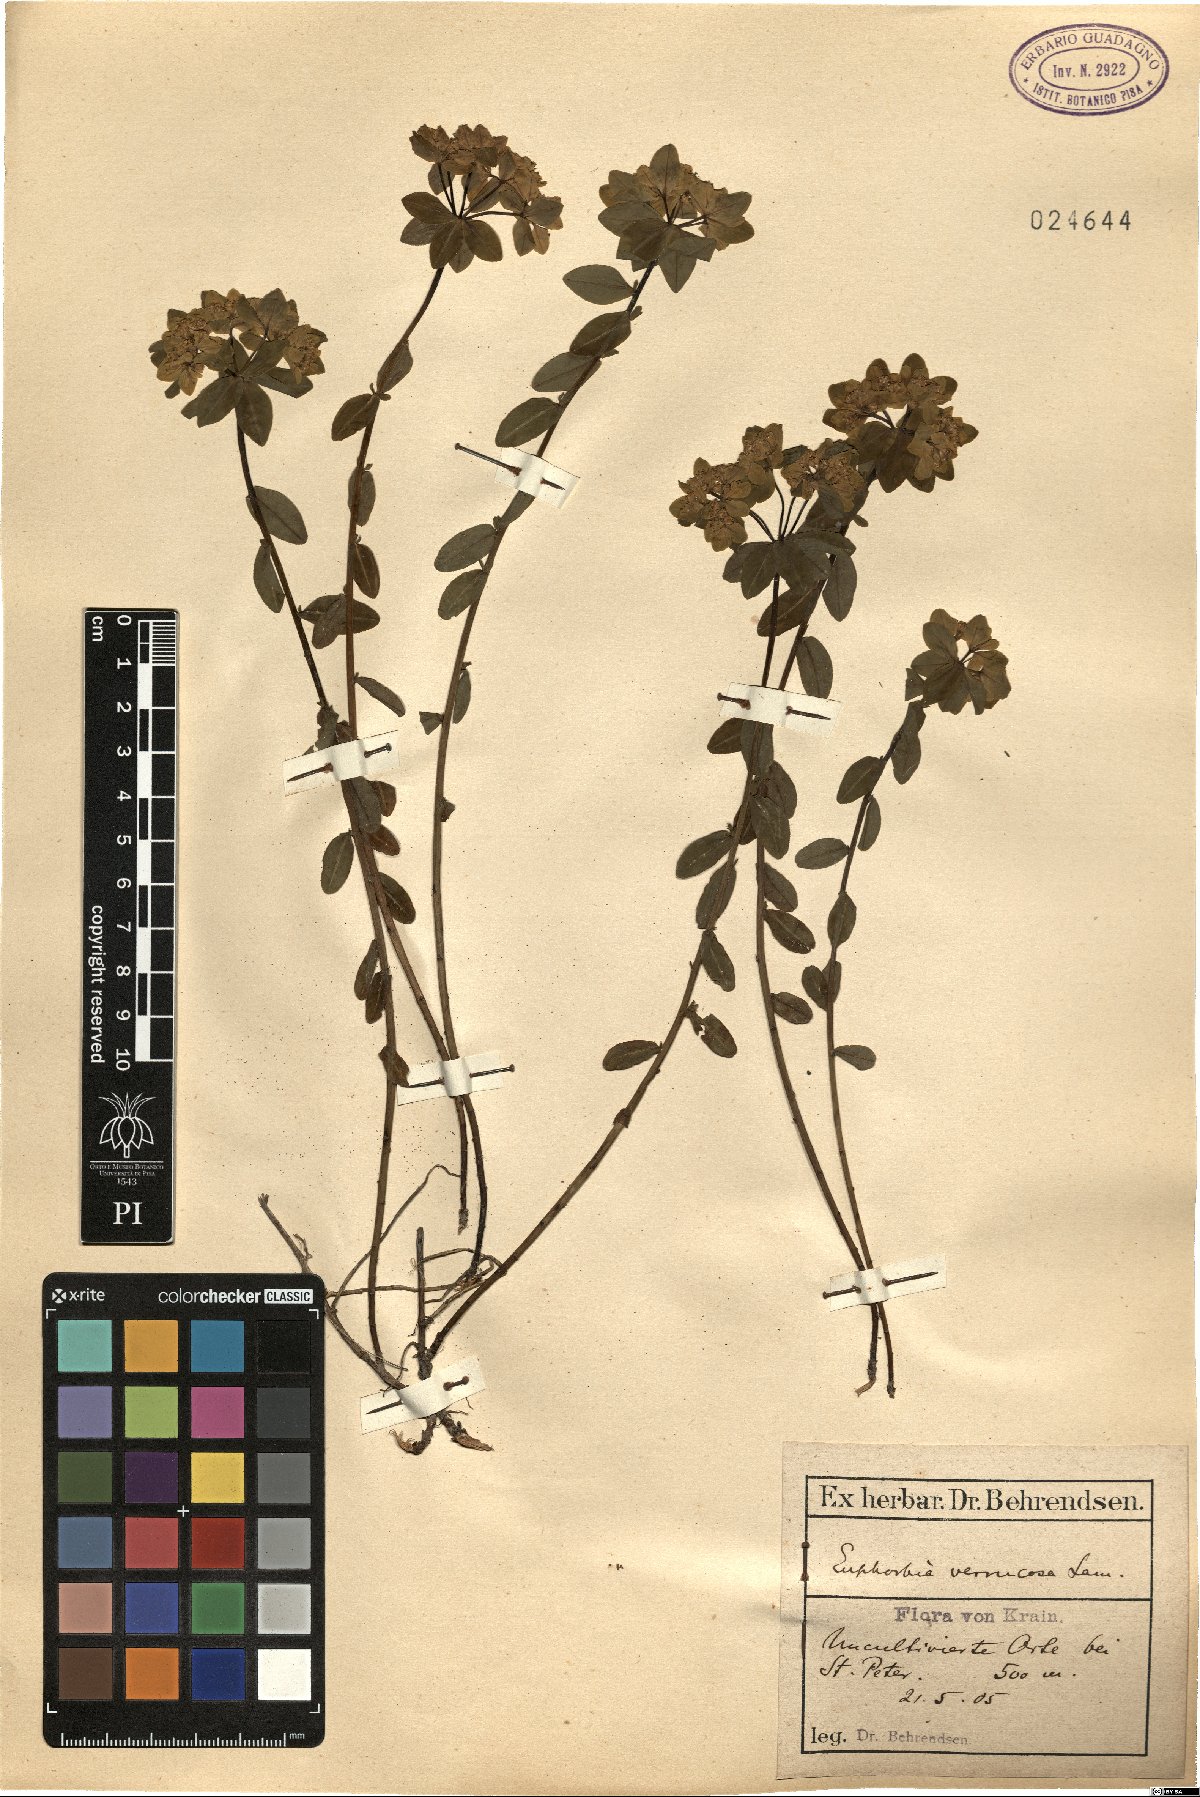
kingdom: Plantae
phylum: Tracheophyta
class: Magnoliopsida
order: Malpighiales
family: Euphorbiaceae
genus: Euphorbia
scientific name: Euphorbia verrucosa
